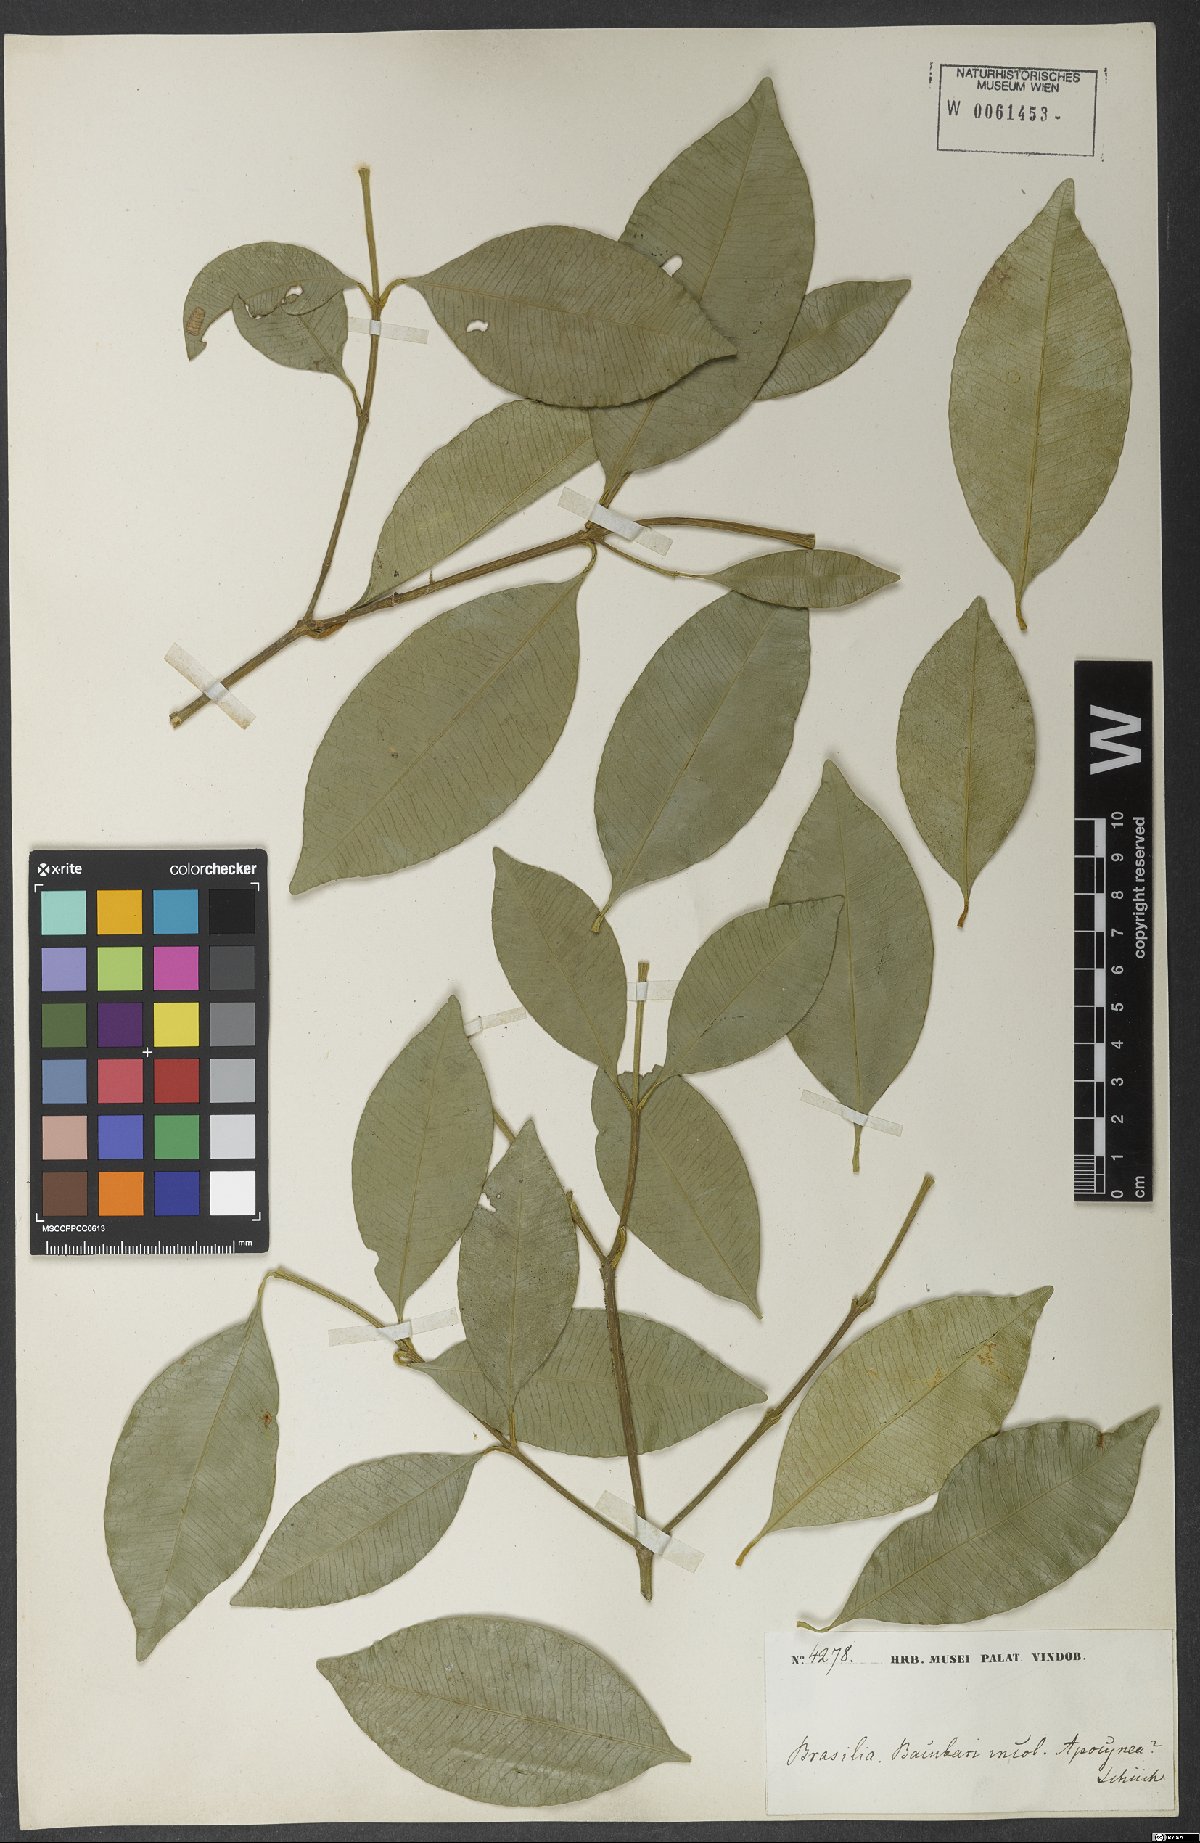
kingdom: Plantae
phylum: Tracheophyta
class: Magnoliopsida
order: Malpighiales
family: Clusiaceae
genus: Garcinia
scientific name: Garcinia gardneriana
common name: Achacha
